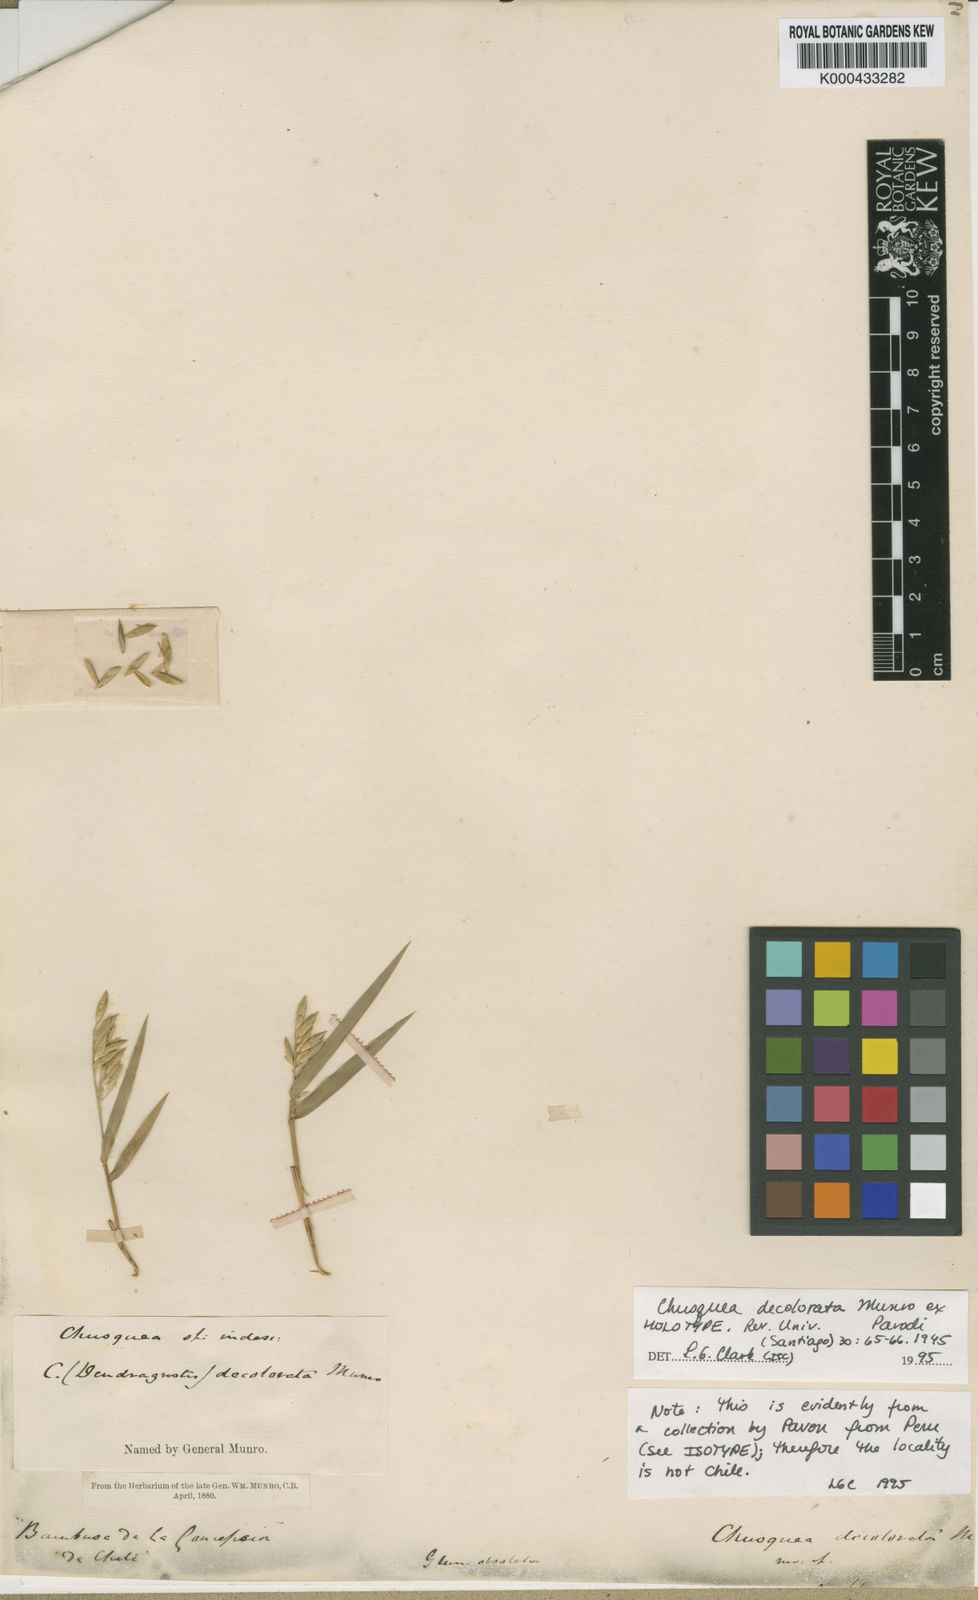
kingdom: Plantae
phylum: Tracheophyta
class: Liliopsida
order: Poales
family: Poaceae
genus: Chusquea
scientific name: Chusquea
